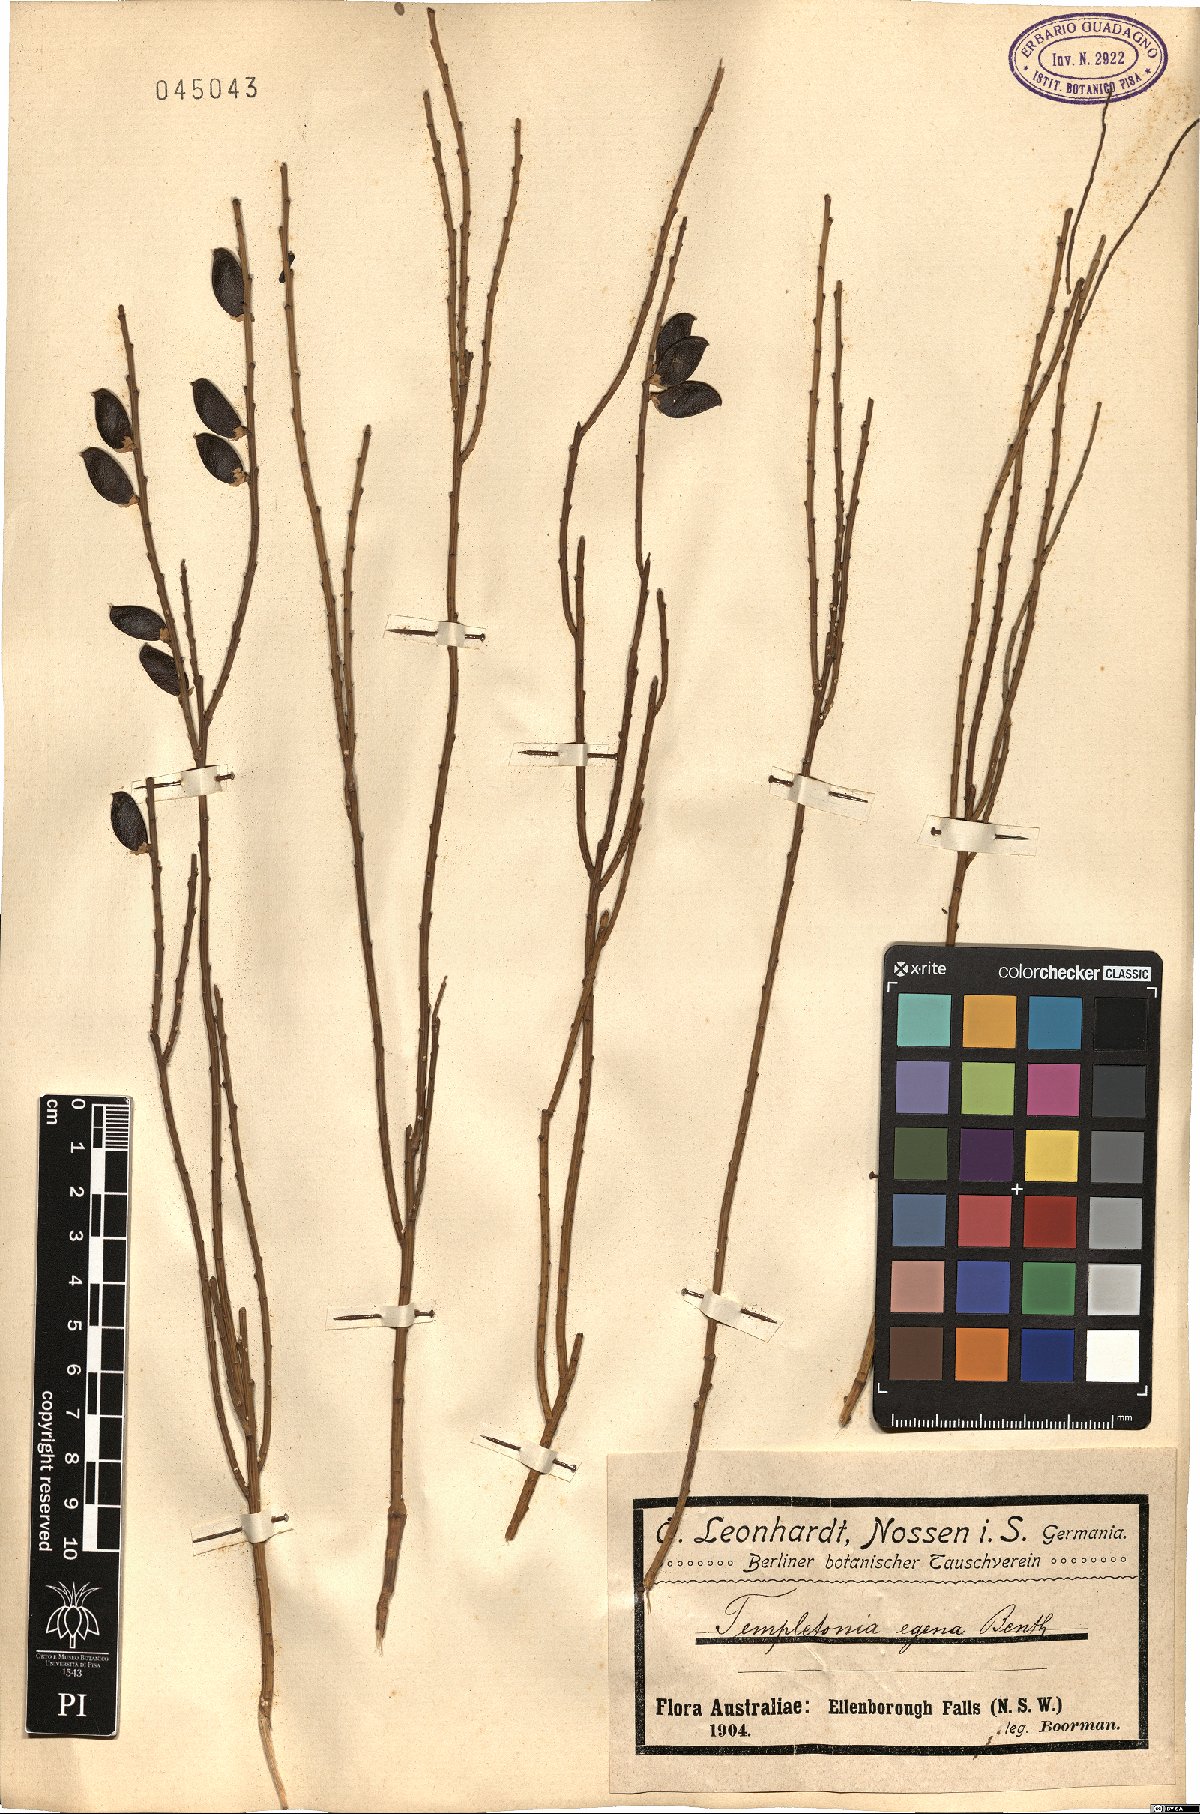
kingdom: Plantae
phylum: Tracheophyta
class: Magnoliopsida
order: Fabales
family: Fabaceae
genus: Templetonia
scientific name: Templetonia egena
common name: Desert broombush
